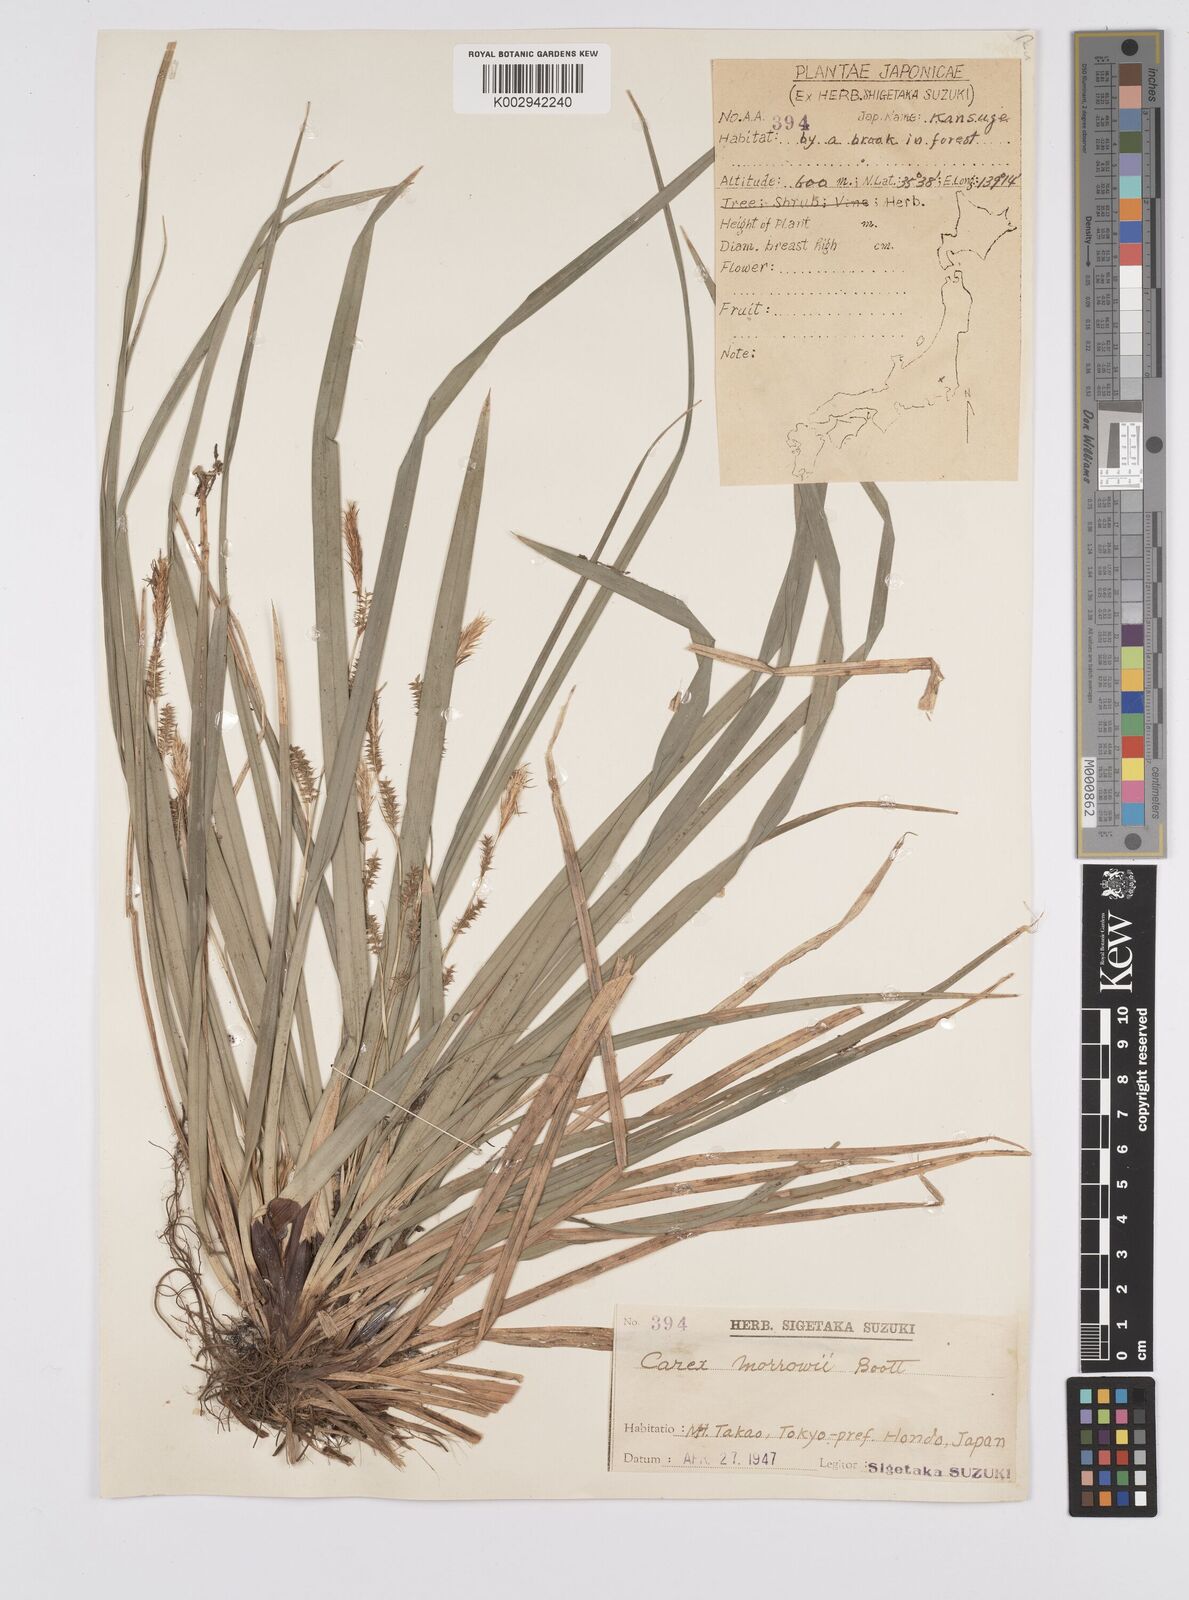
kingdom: Plantae
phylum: Tracheophyta
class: Liliopsida
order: Poales
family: Cyperaceae
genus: Carex
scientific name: Carex morrowii
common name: Japanese sedge
